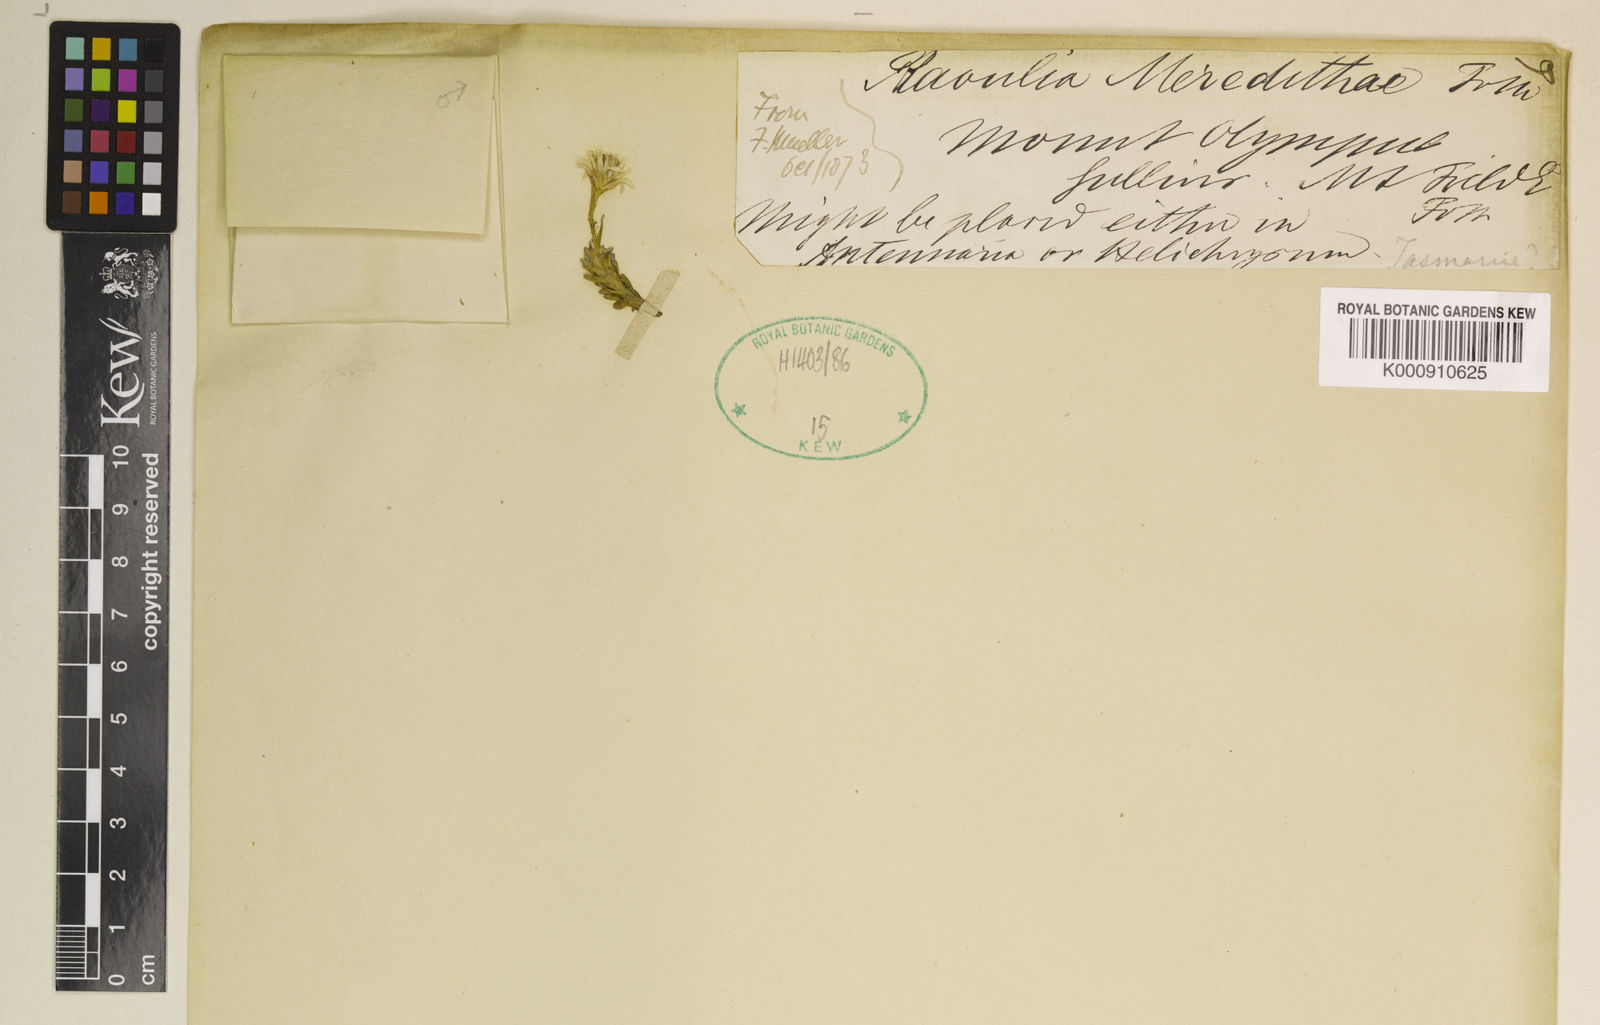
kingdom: Plantae
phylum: Tracheophyta
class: Magnoliopsida
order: Asterales
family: Asteraceae
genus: Ewartia
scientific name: Ewartia meredithae
